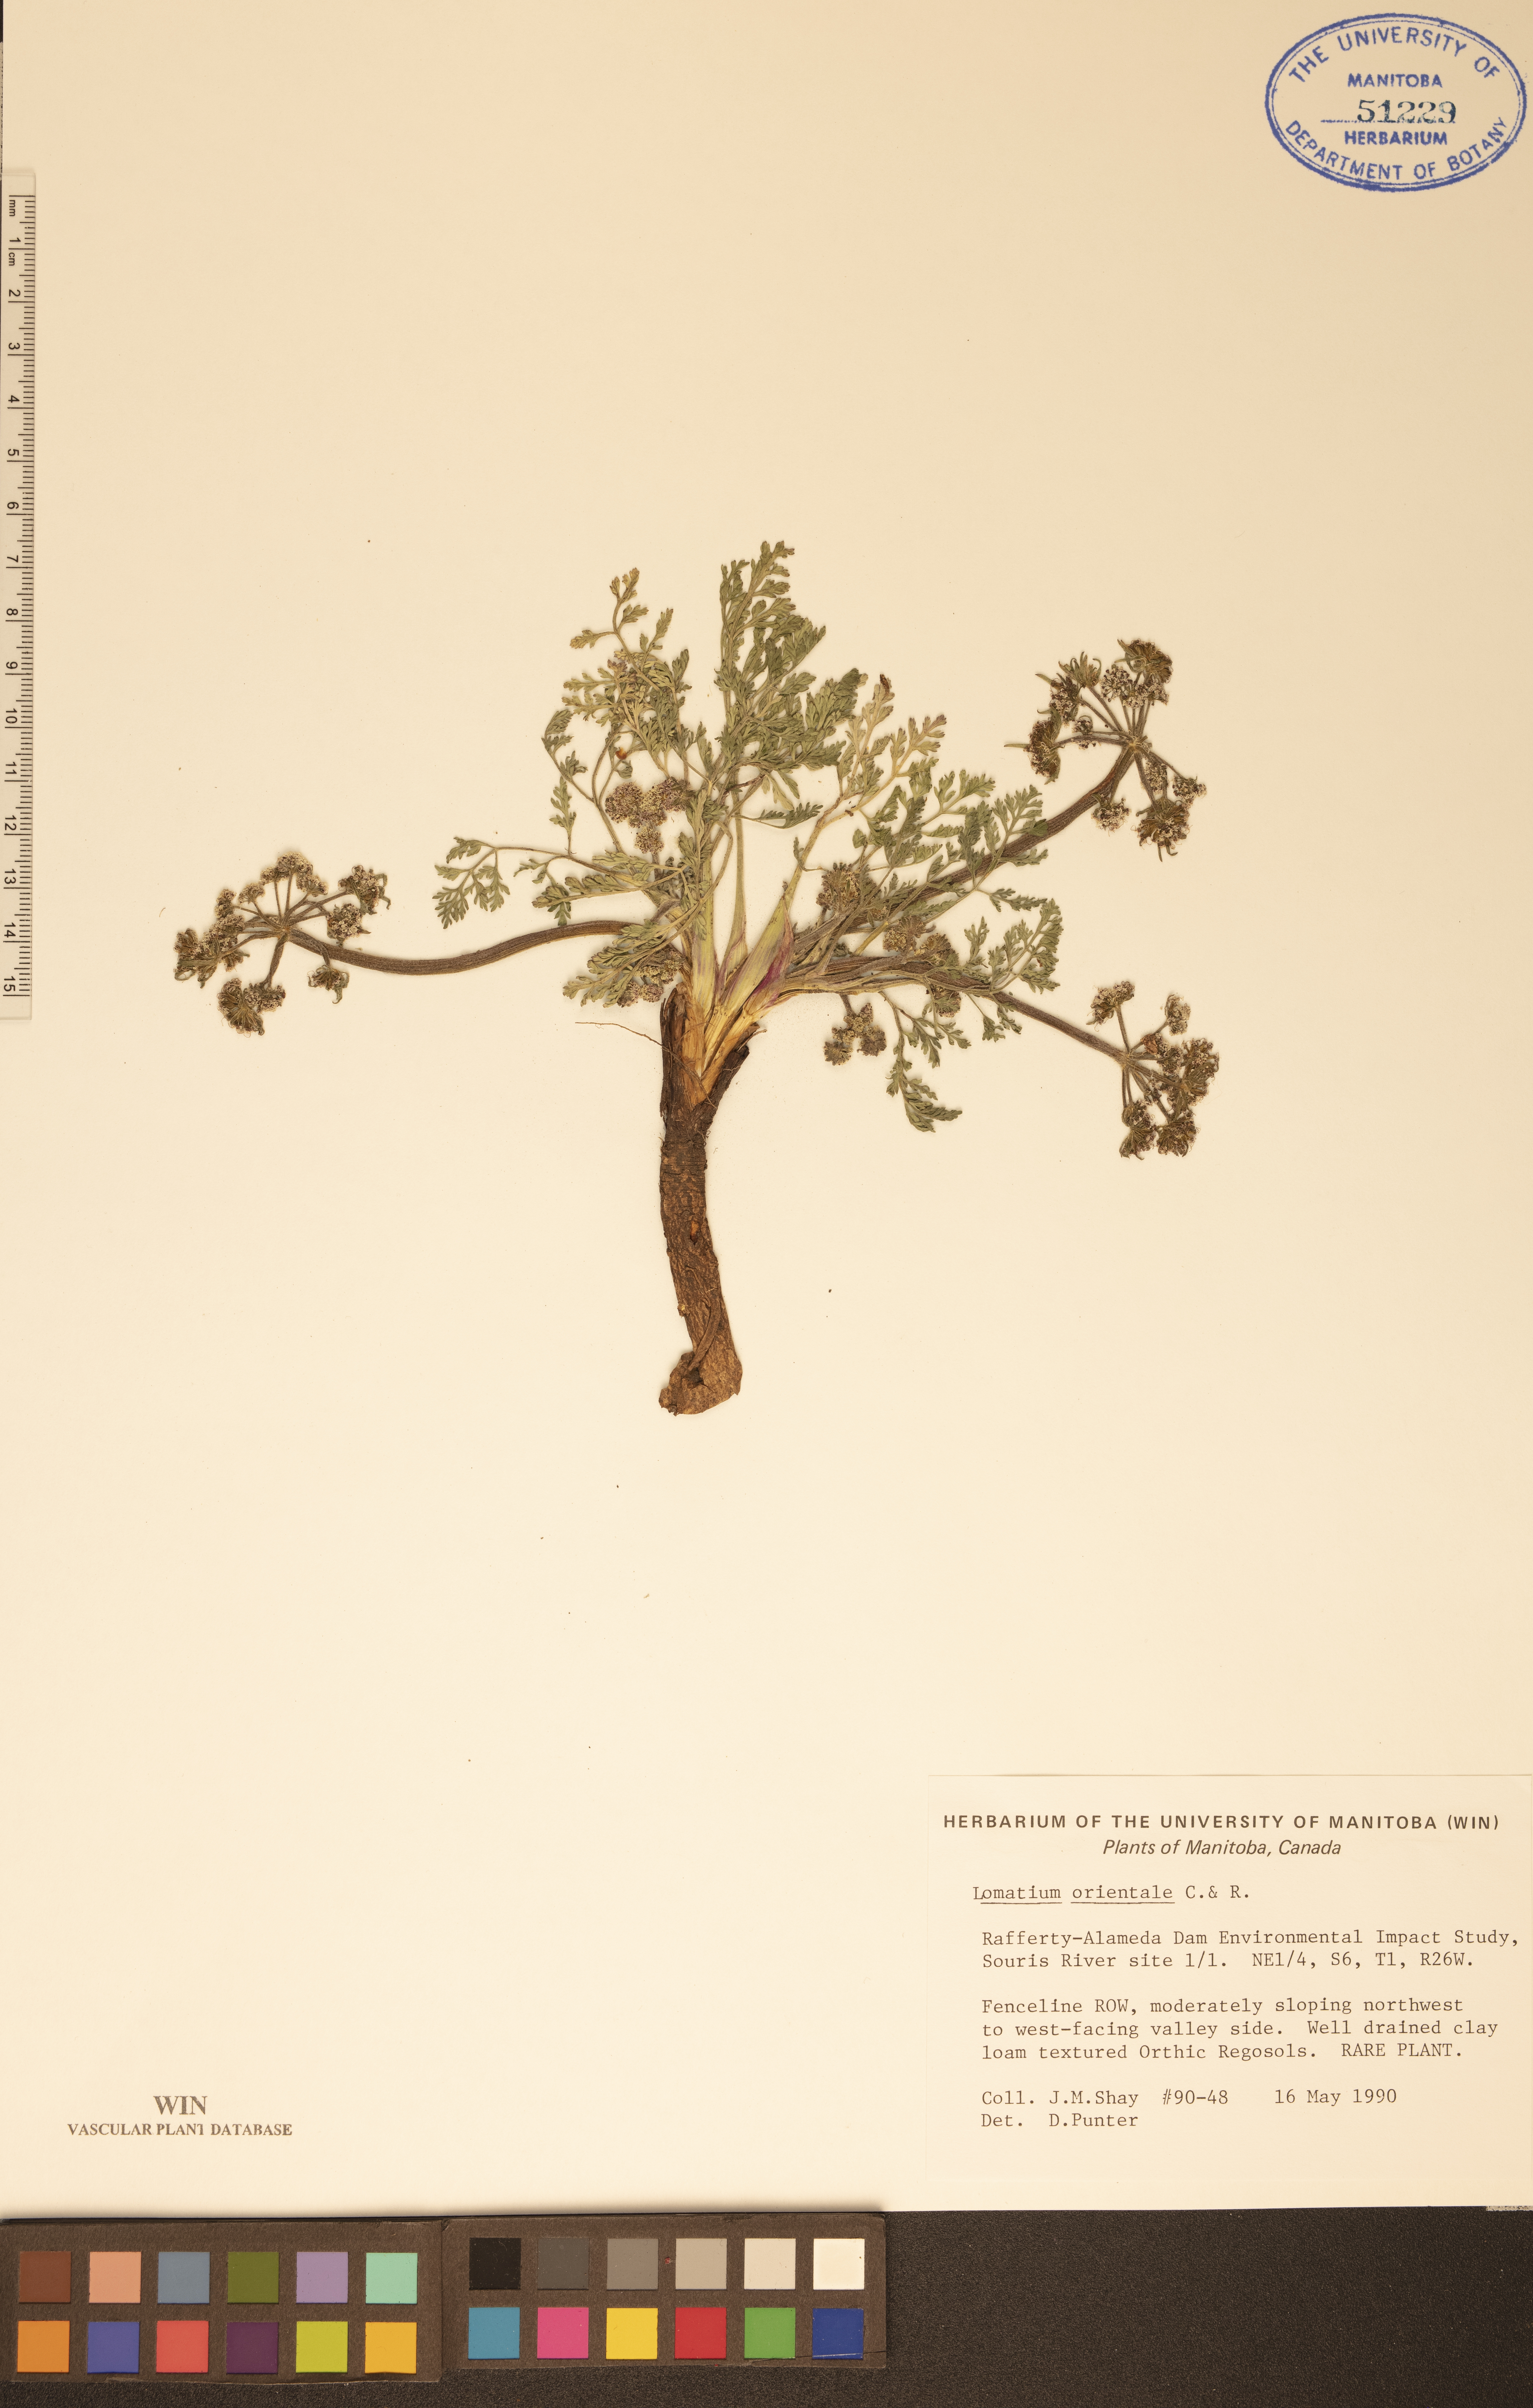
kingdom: Plantae
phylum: Tracheophyta
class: Magnoliopsida
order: Apiales
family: Apiaceae
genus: Lomatium
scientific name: Lomatium orientale
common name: Eastern cous
